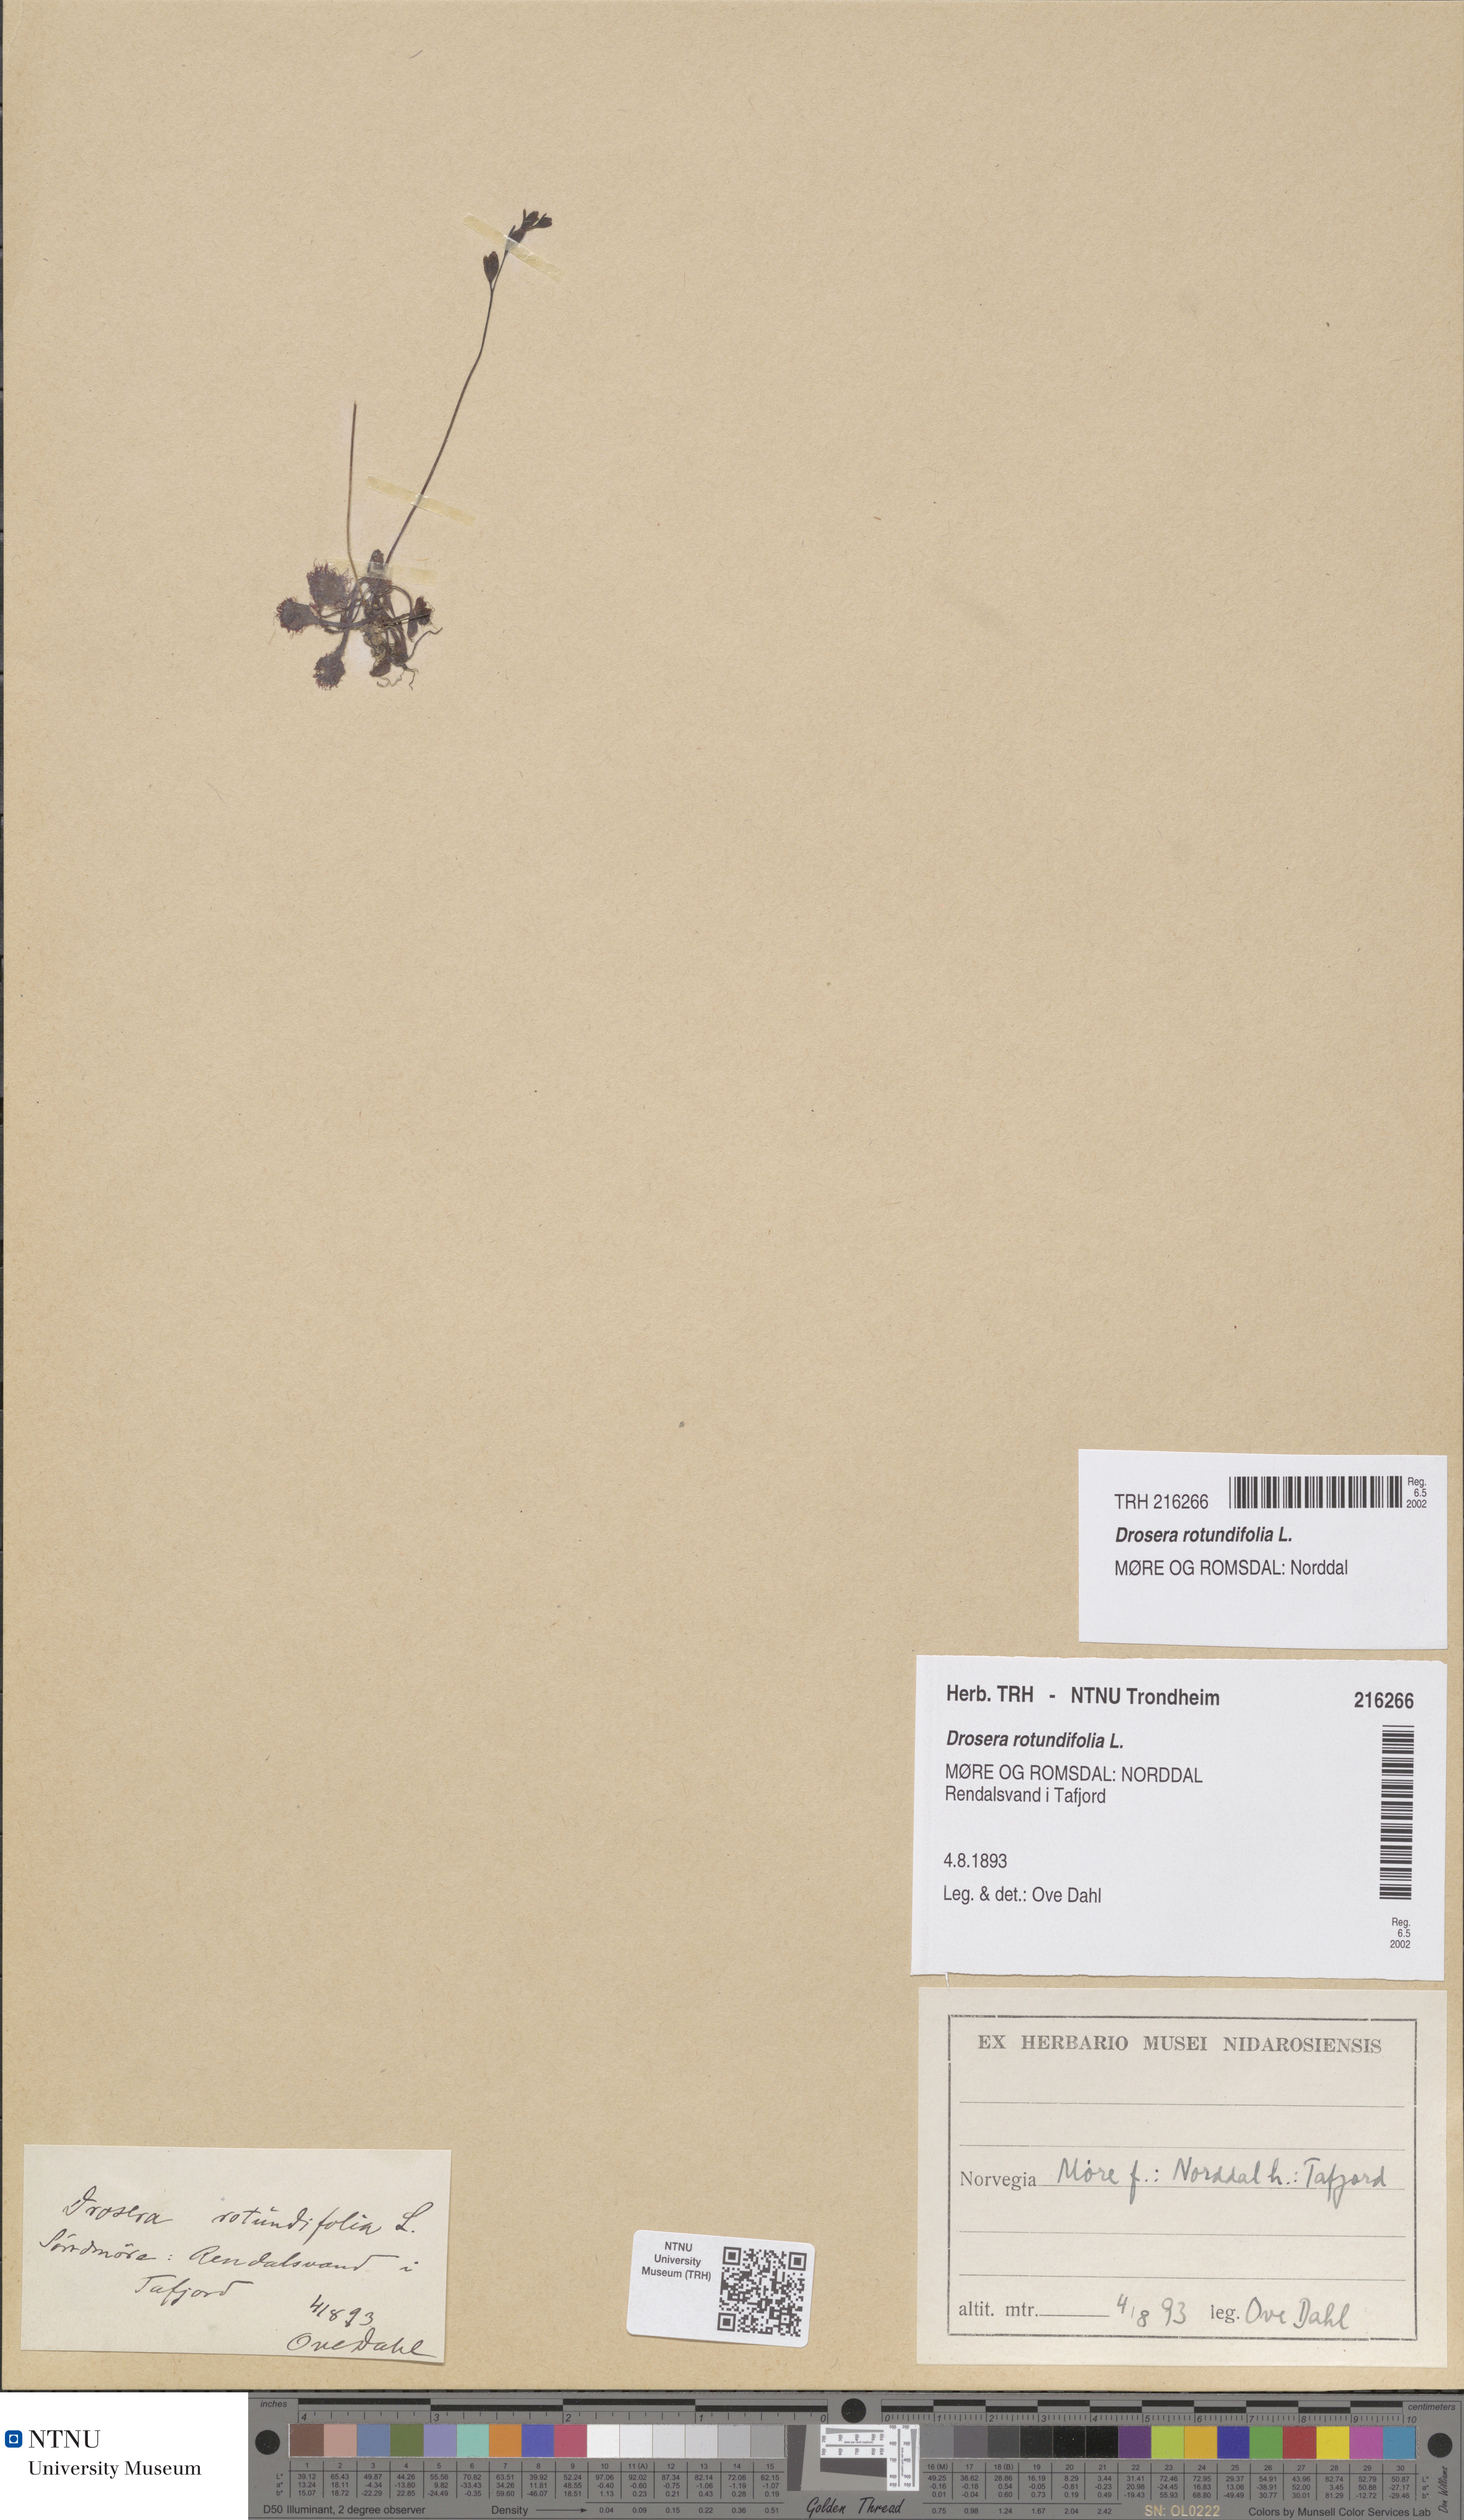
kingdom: Plantae
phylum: Tracheophyta
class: Magnoliopsida
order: Caryophyllales
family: Droseraceae
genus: Drosera
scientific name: Drosera rotundifolia
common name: Round-leaved sundew
